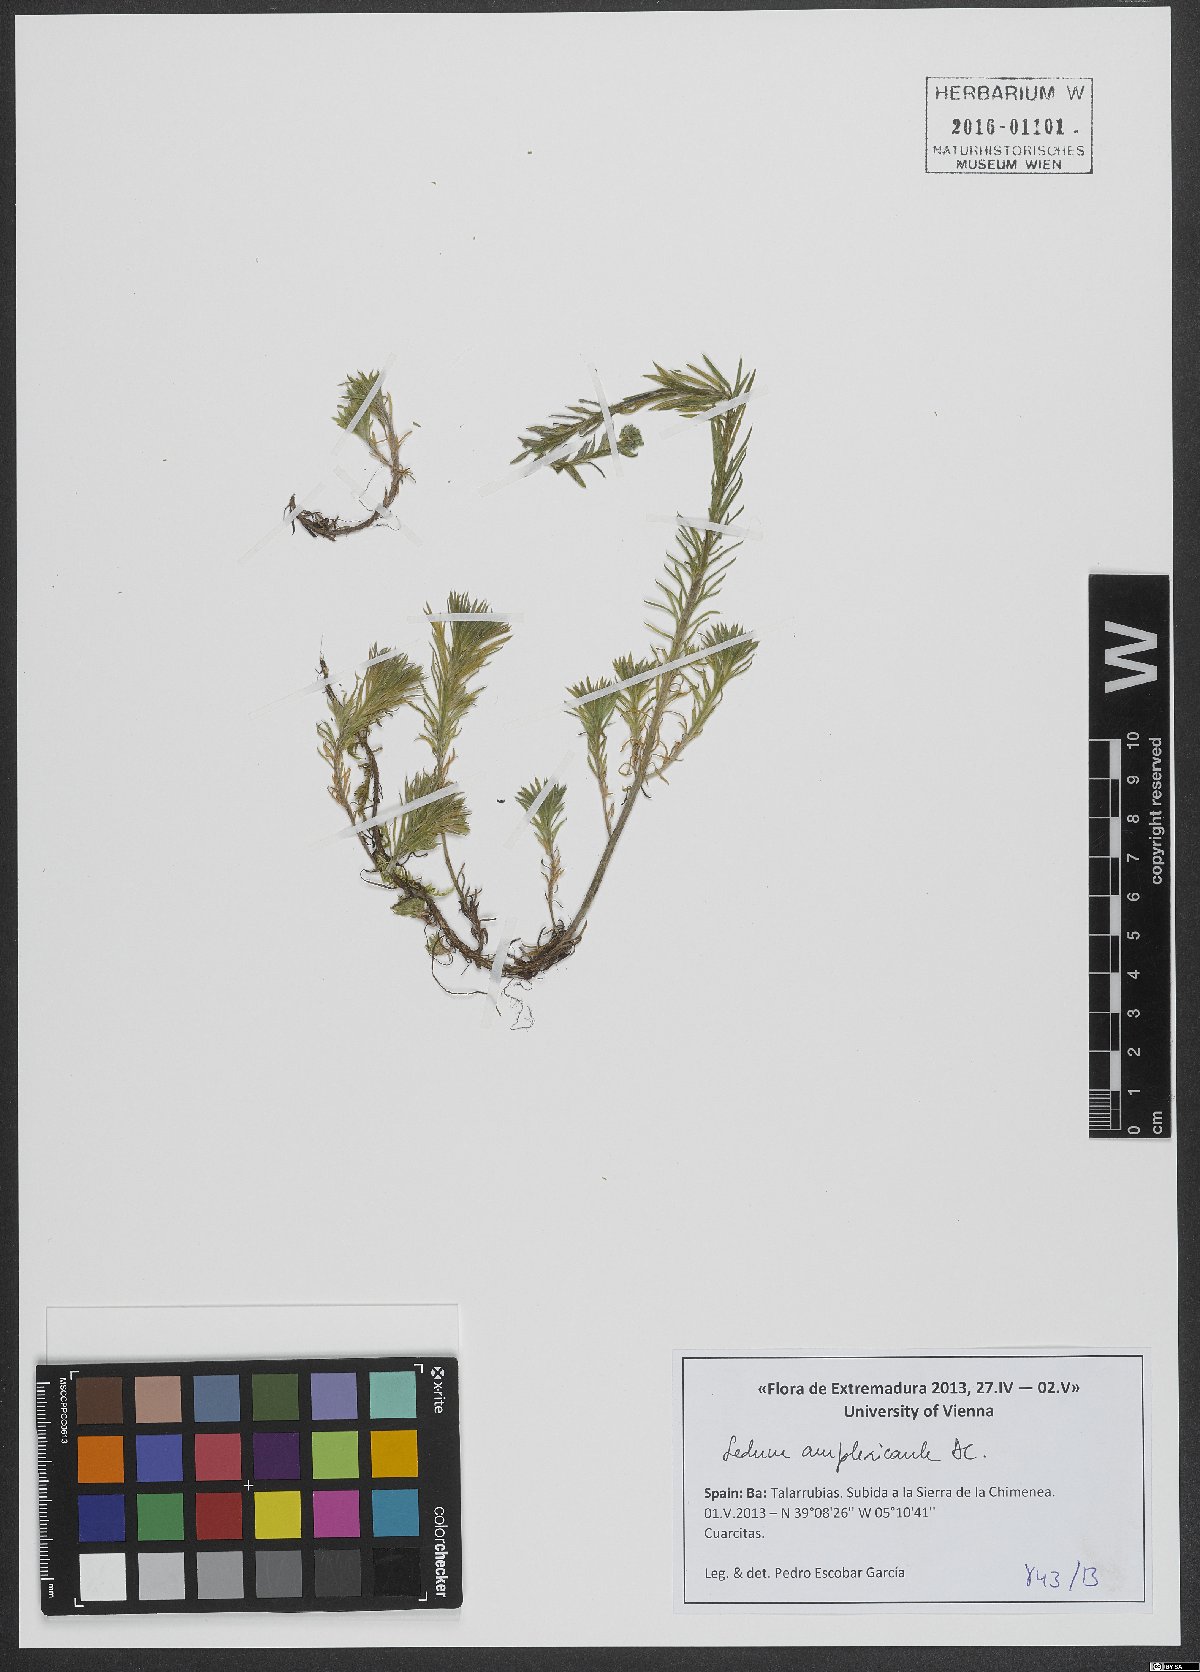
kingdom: Plantae
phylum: Tracheophyta
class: Magnoliopsida
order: Saxifragales
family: Crassulaceae
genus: Petrosedum
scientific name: Petrosedum amplexicaule
